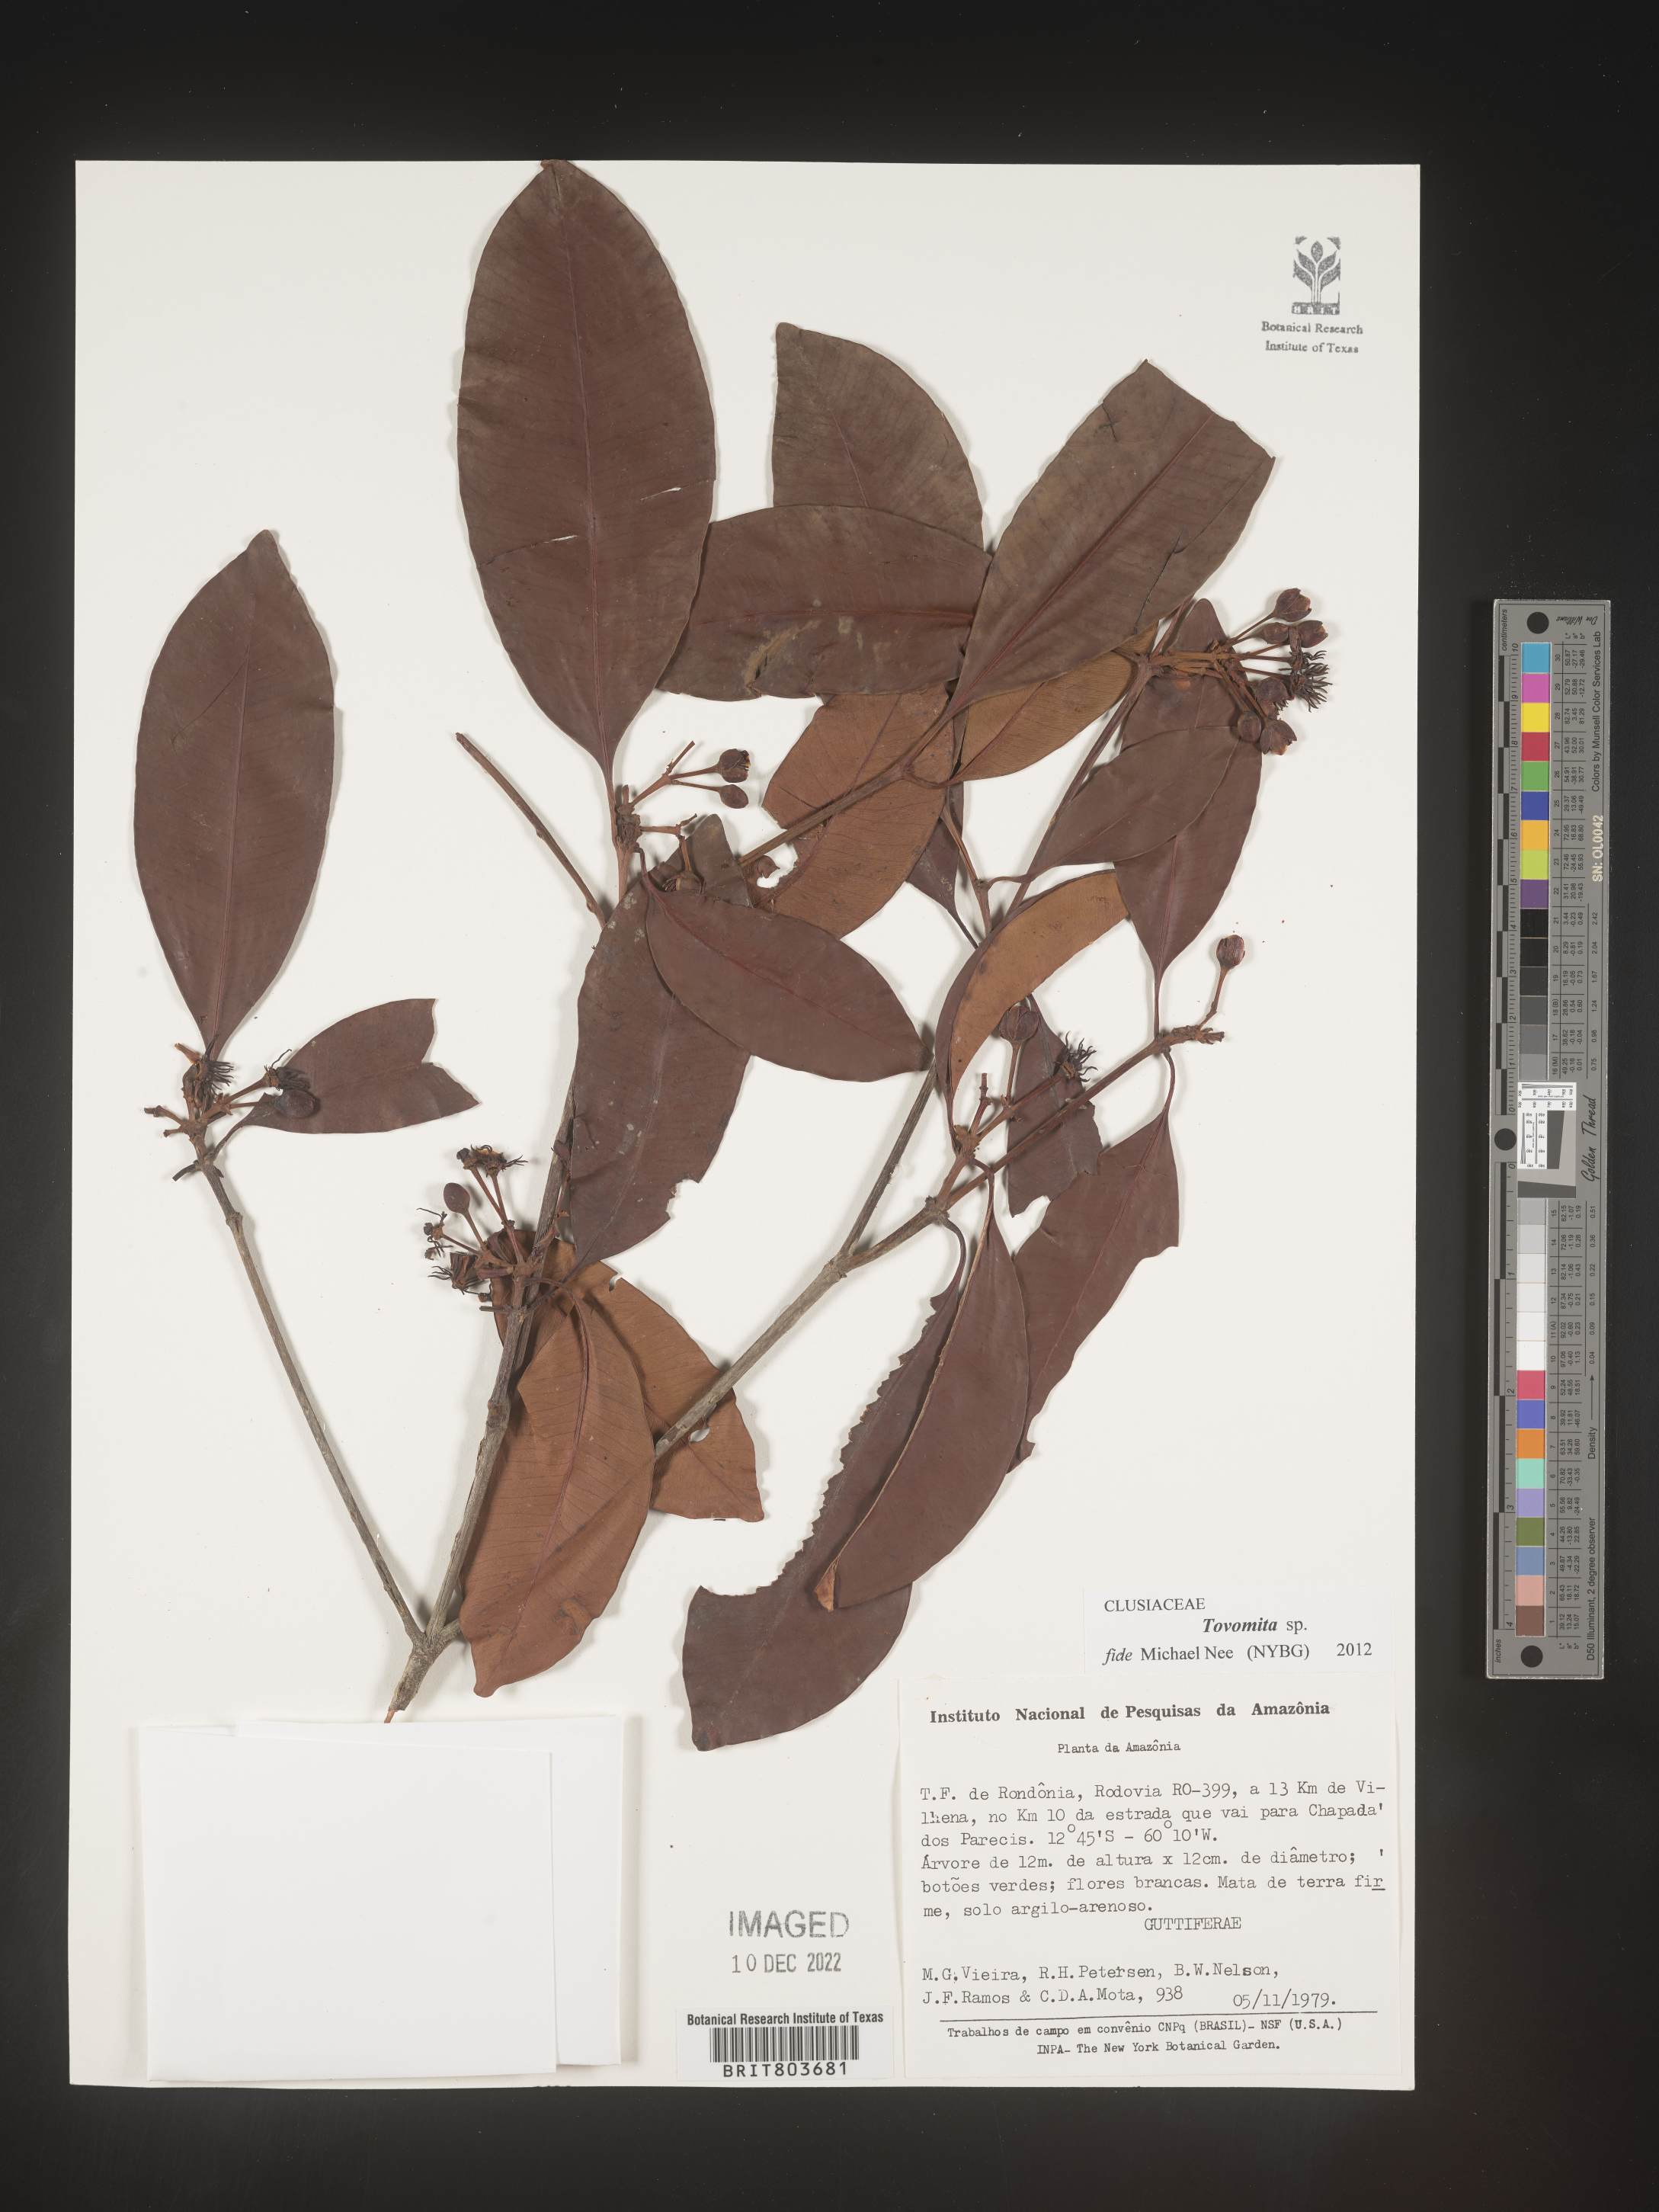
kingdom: Plantae
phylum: Tracheophyta
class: Magnoliopsida
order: Malpighiales
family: Clusiaceae
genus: Tovomita
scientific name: Tovomita
